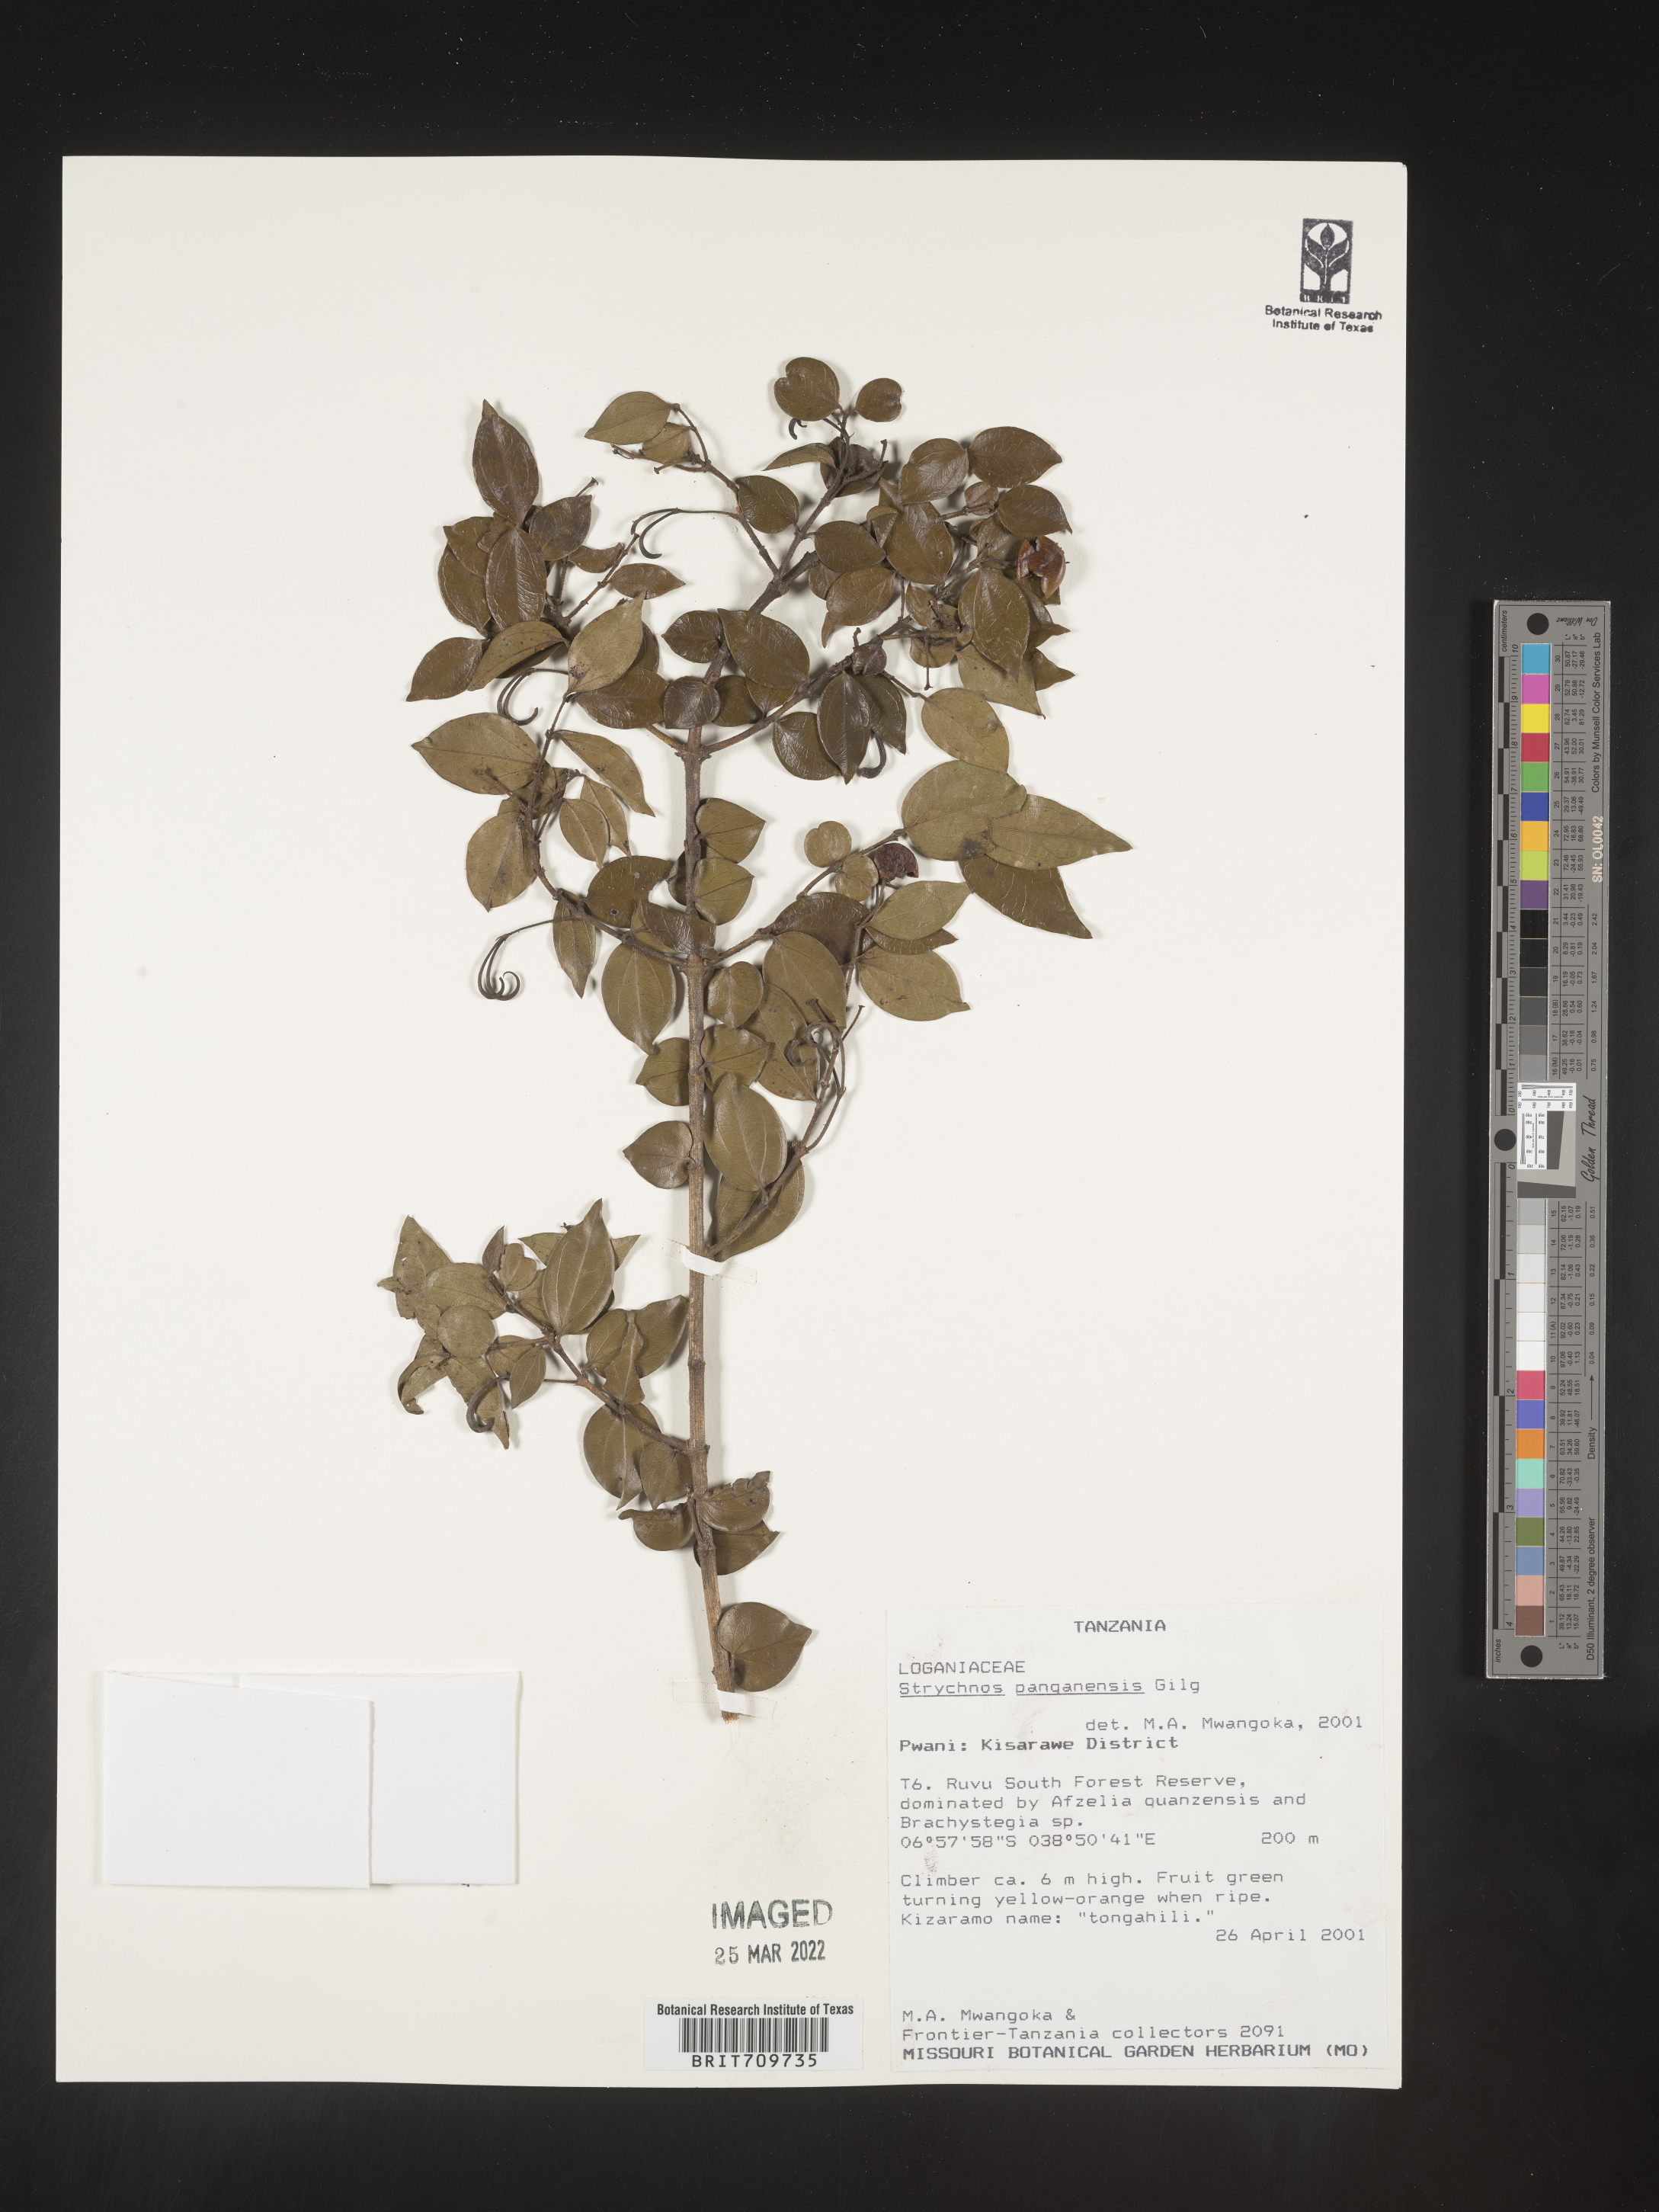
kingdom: Plantae
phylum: Tracheophyta
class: Magnoliopsida
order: Gentianales
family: Loganiaceae
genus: Strychnos
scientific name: Strychnos
